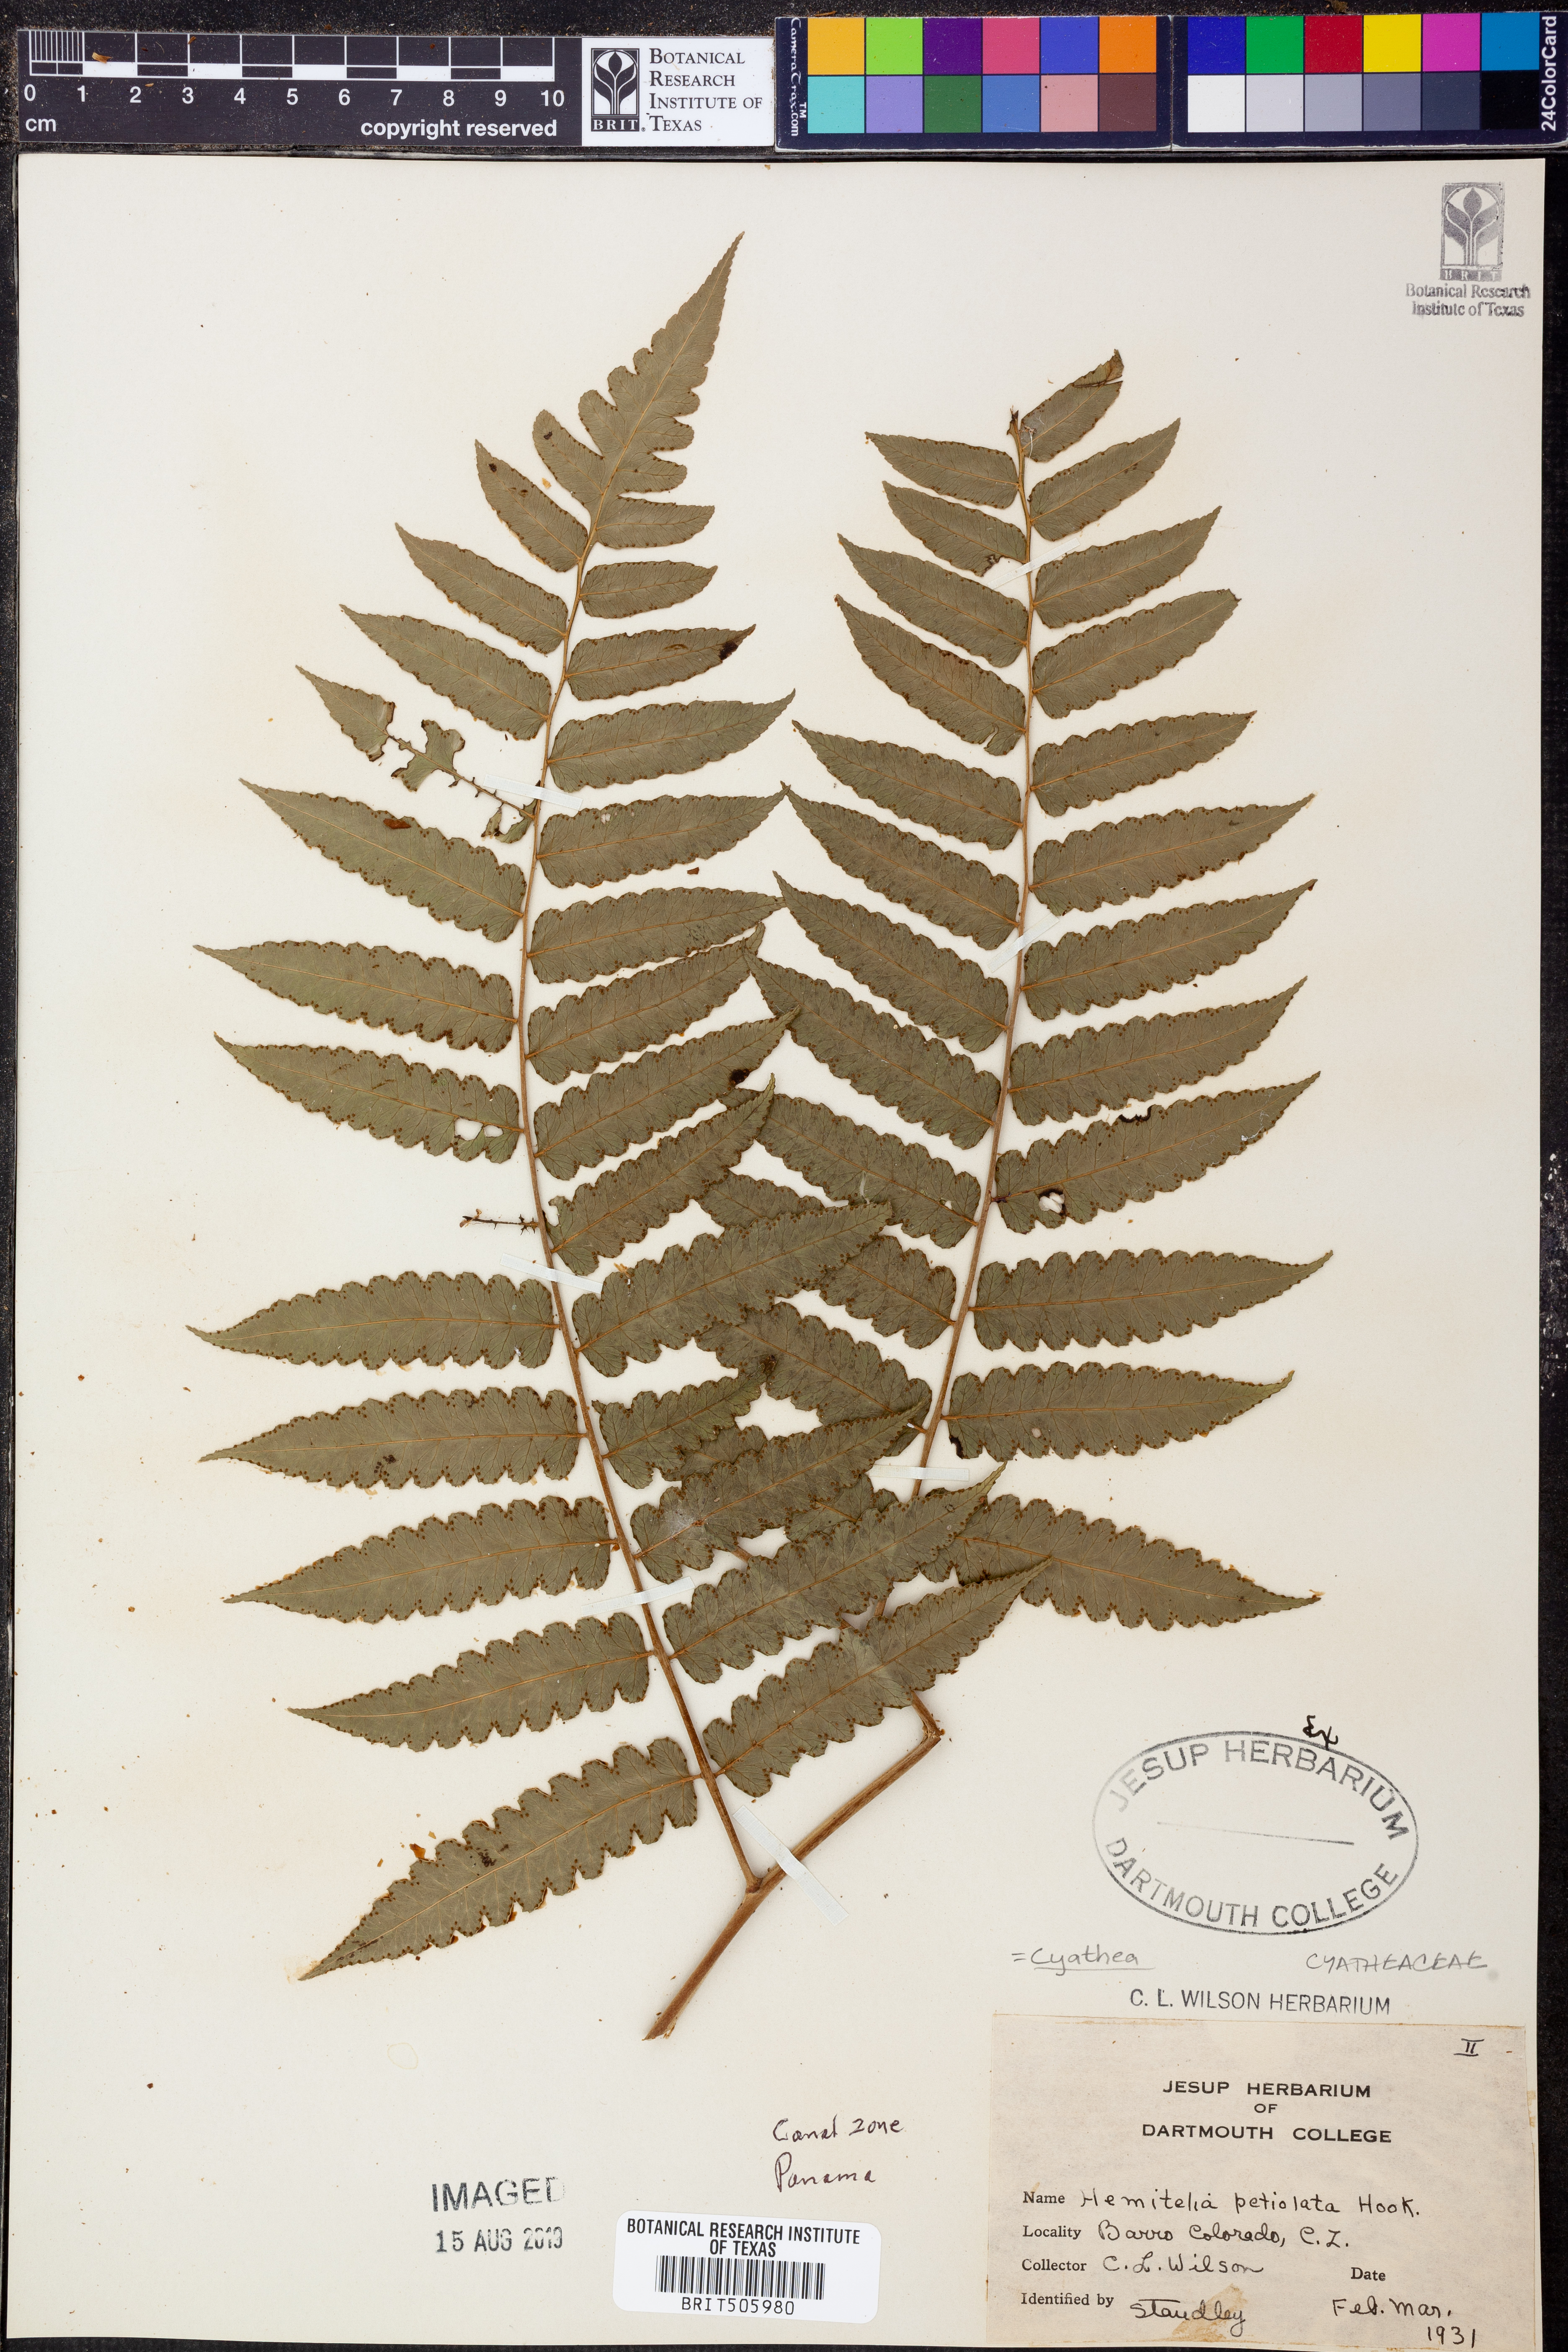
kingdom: Plantae
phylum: Tracheophyta
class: Polypodiopsida
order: Cyatheales
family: Cyatheaceae
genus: Cyathea
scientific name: Cyathea petiolata
